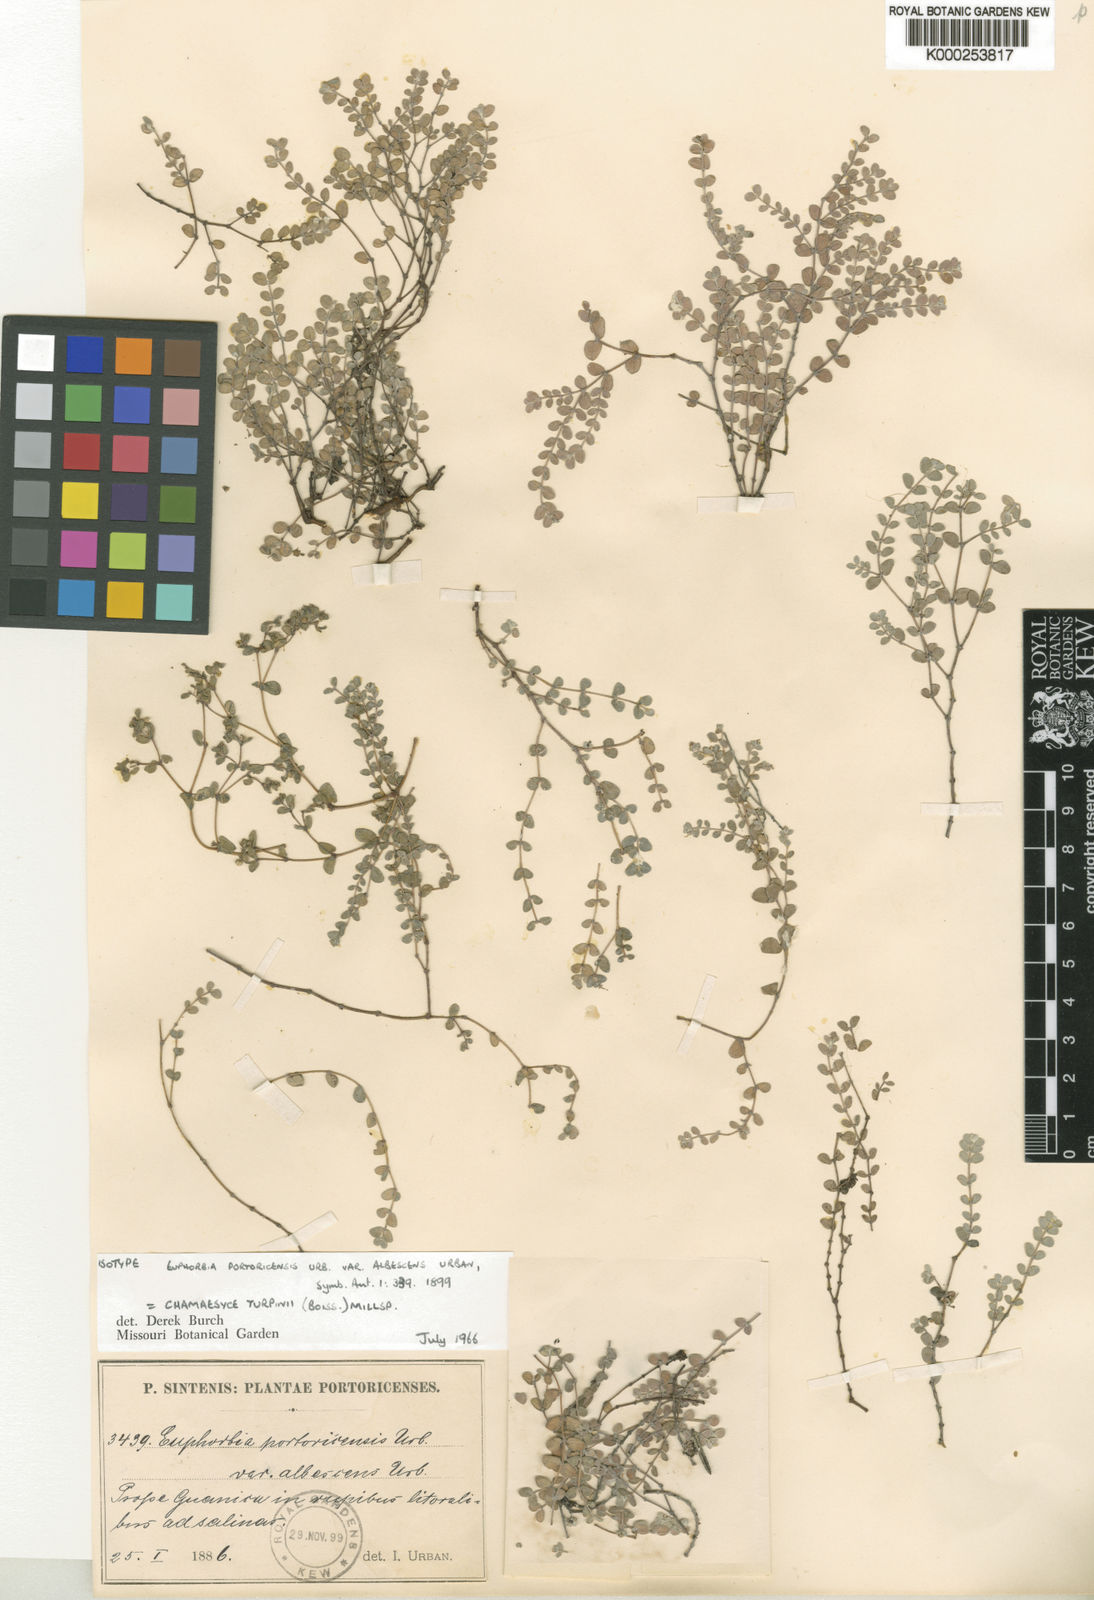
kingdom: Plantae
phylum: Tracheophyta
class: Magnoliopsida
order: Malpighiales
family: Euphorbiaceae
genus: Euphorbia
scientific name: Euphorbia turpinii
